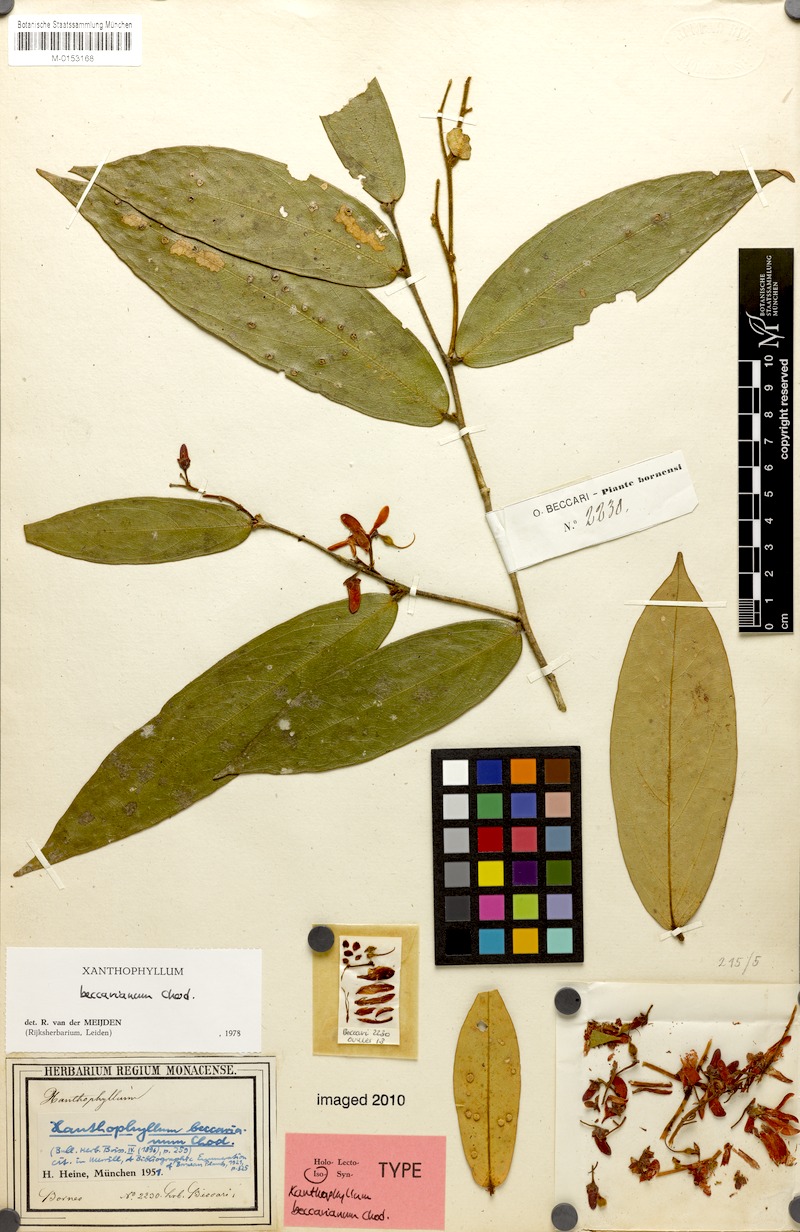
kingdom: Plantae
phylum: Tracheophyta
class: Magnoliopsida
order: Fabales
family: Polygalaceae
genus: Xanthophyllum
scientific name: Xanthophyllum beccarianum
